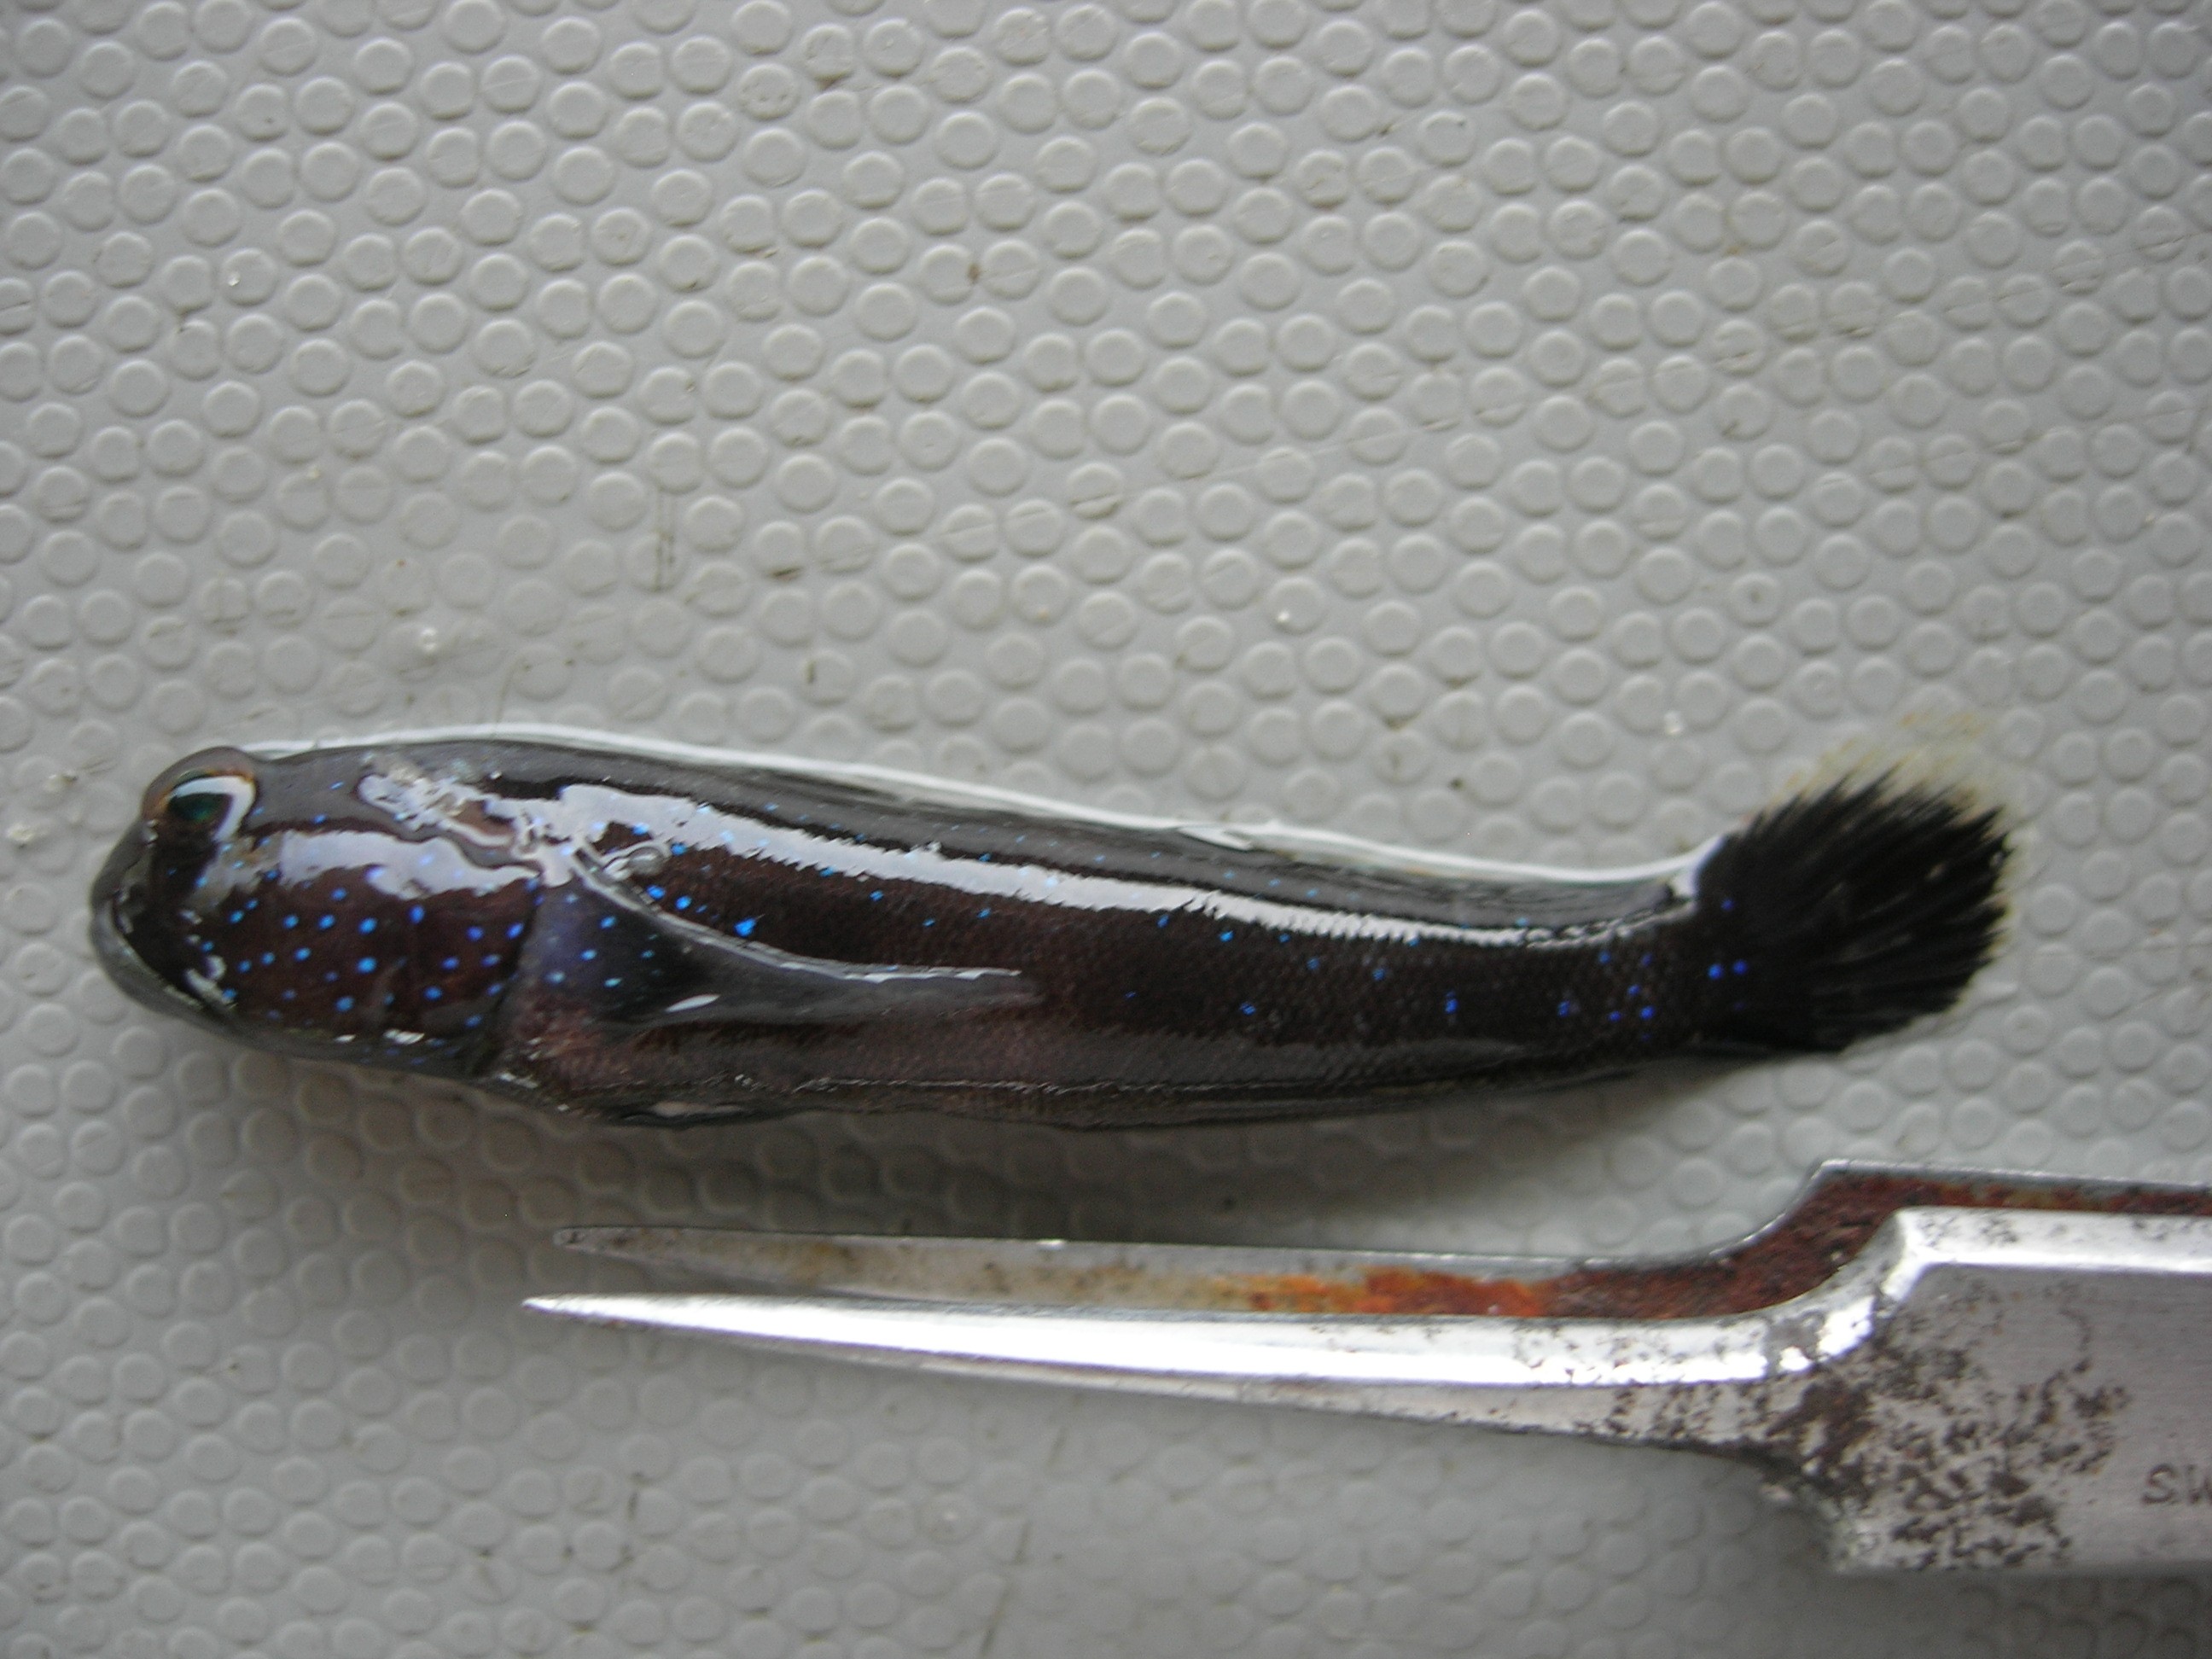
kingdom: Animalia
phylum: Chordata
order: Perciformes
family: Gobiidae
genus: Cryptocentrus
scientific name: Cryptocentrus fasciatus
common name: Barred prawn-goby
